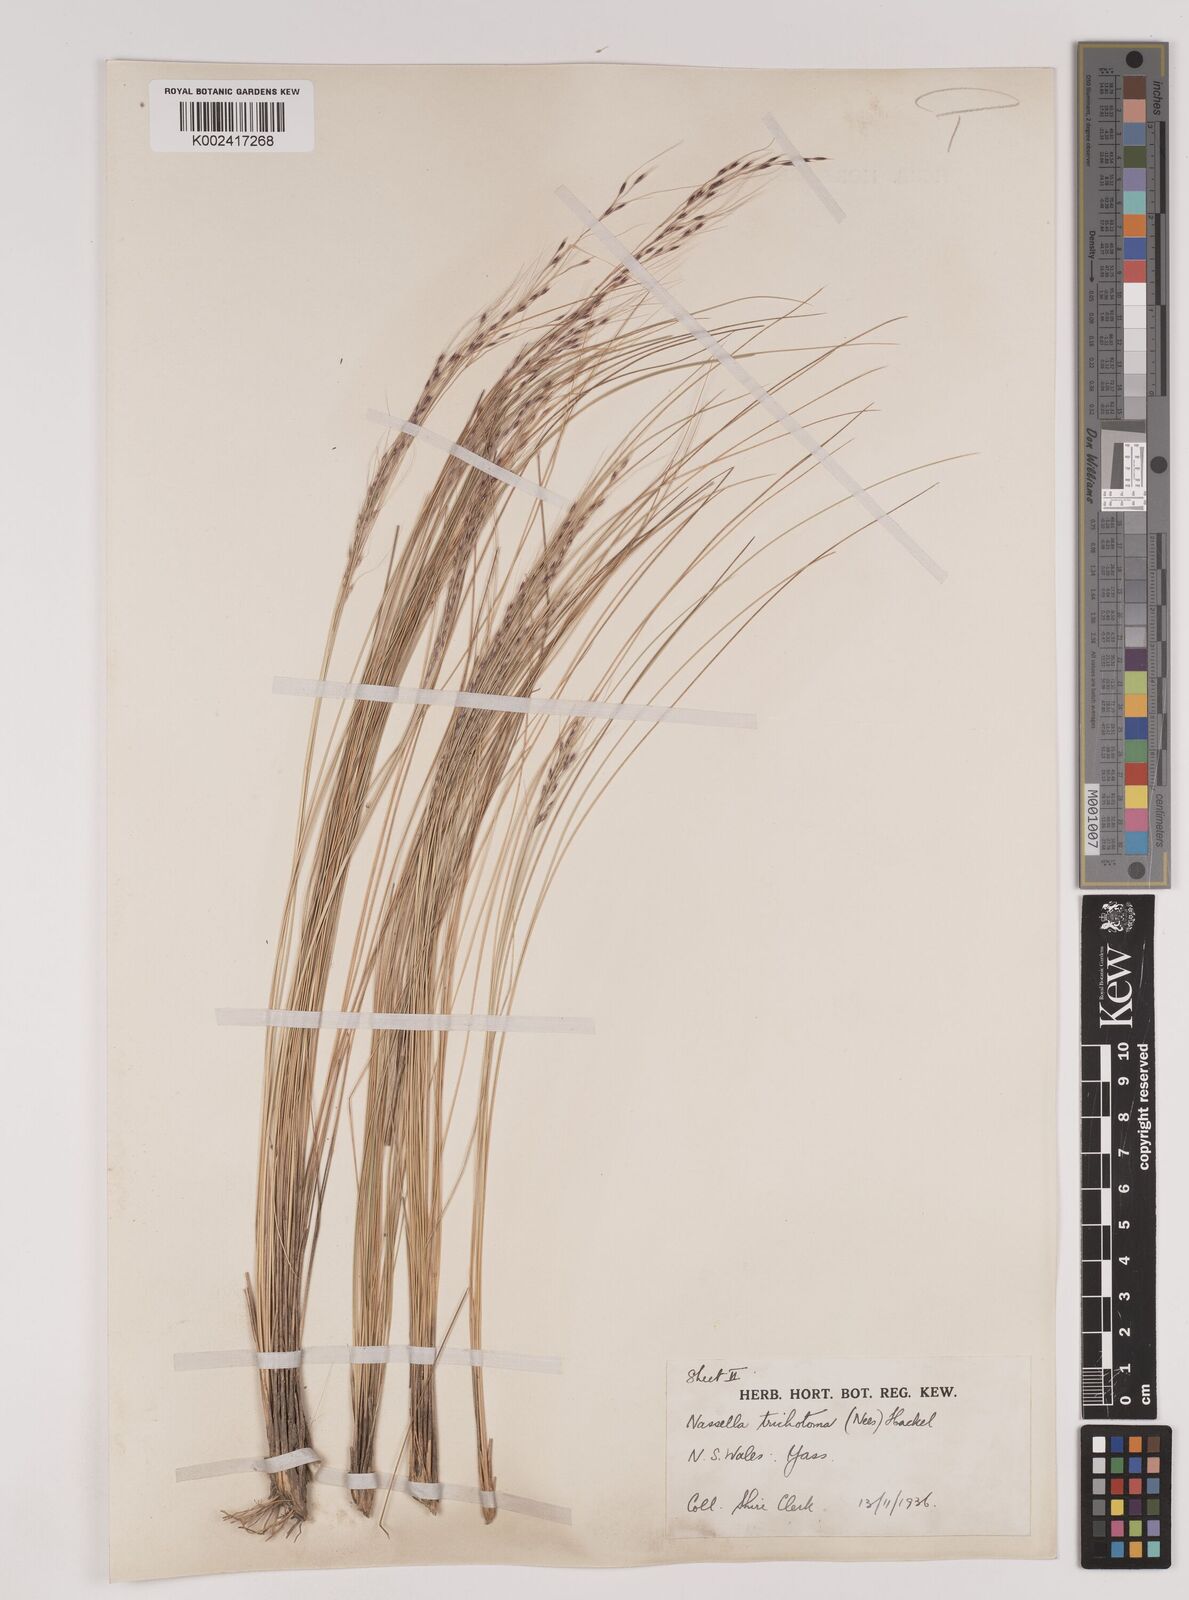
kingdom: Plantae
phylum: Tracheophyta
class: Liliopsida
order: Poales
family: Poaceae
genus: Nassella
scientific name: Nassella trichotoma
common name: Serrated tussock grass
